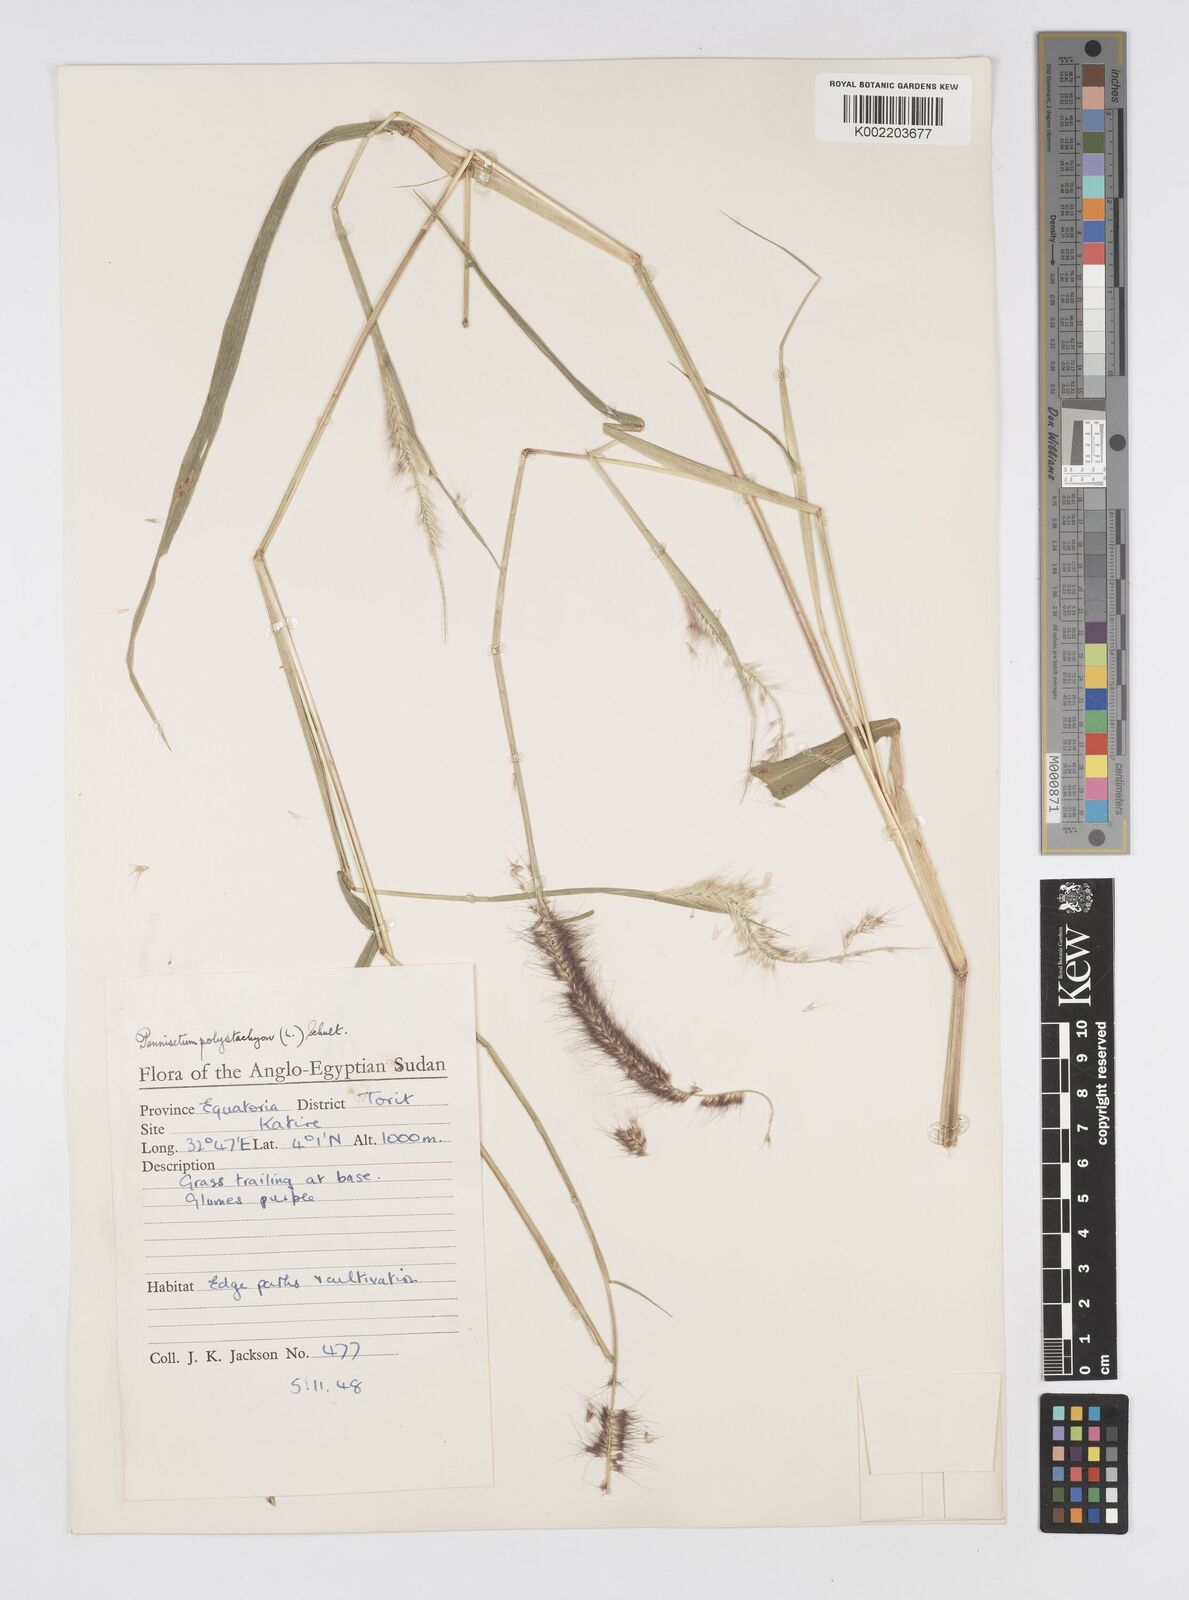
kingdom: Plantae
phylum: Tracheophyta
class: Liliopsida
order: Poales
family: Poaceae
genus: Setaria
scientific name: Setaria parviflora
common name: Knotroot bristle-grass
